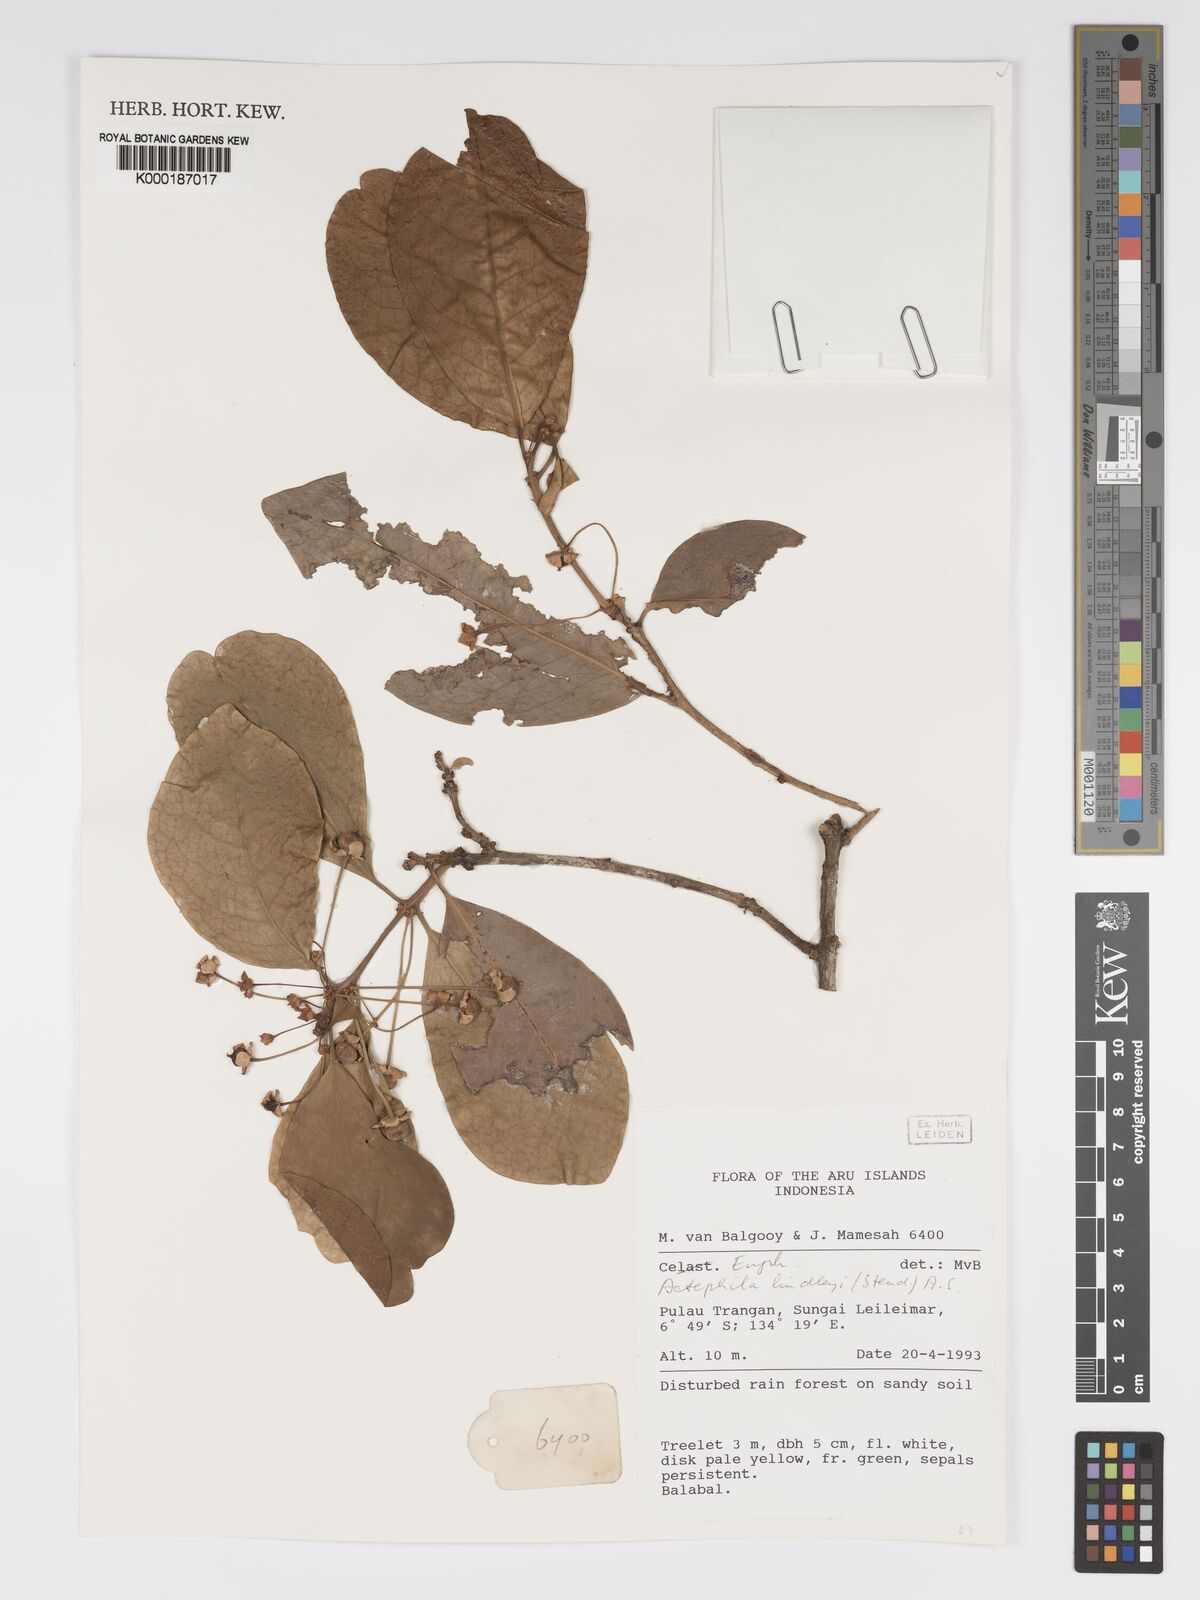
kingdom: Plantae
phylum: Tracheophyta
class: Magnoliopsida
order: Malpighiales
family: Phyllanthaceae
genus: Actephila
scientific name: Actephila lindleyi
